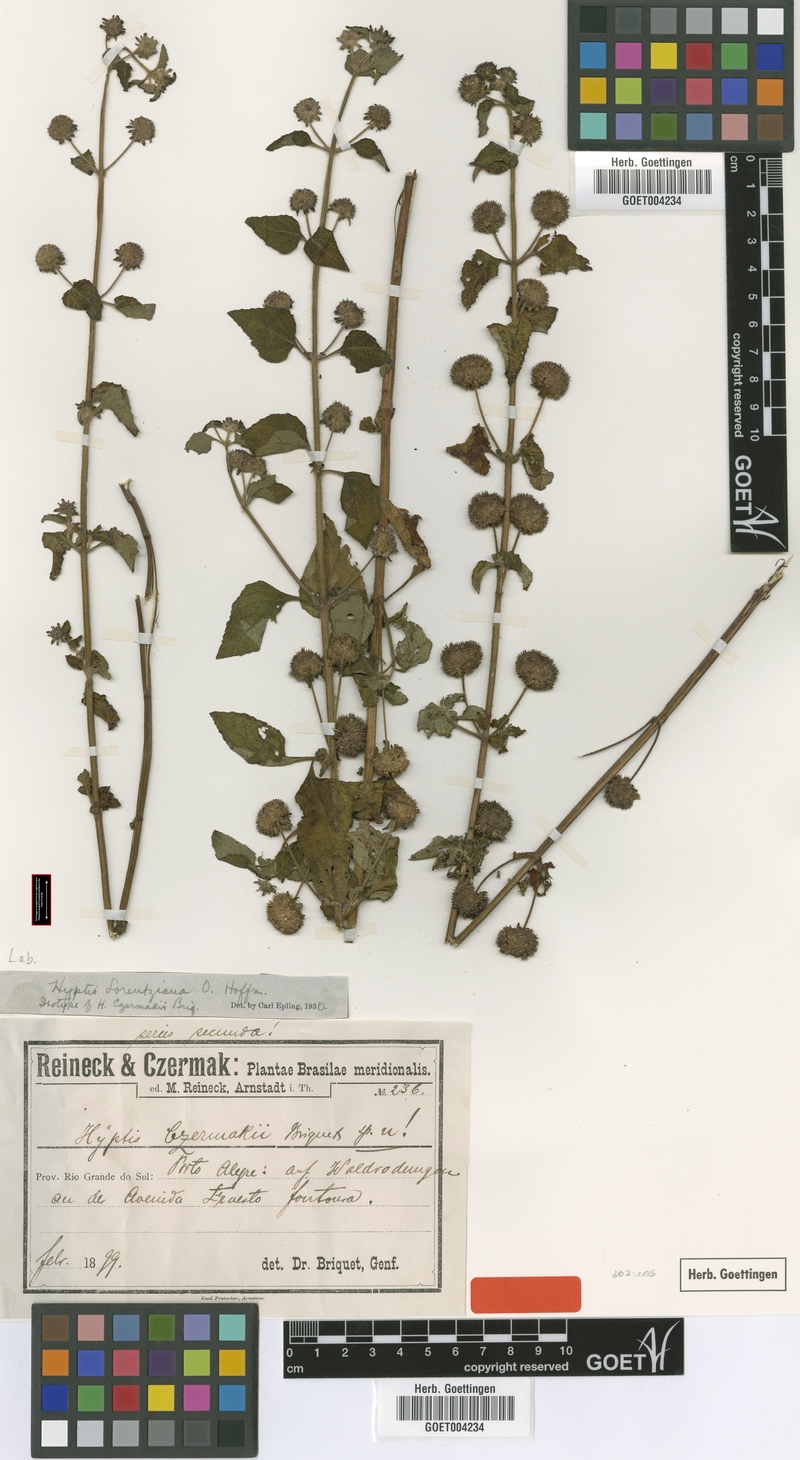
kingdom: Plantae
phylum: Tracheophyta
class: Magnoliopsida
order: Lamiales
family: Lamiaceae
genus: Hyptis
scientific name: Hyptis lorentziana
